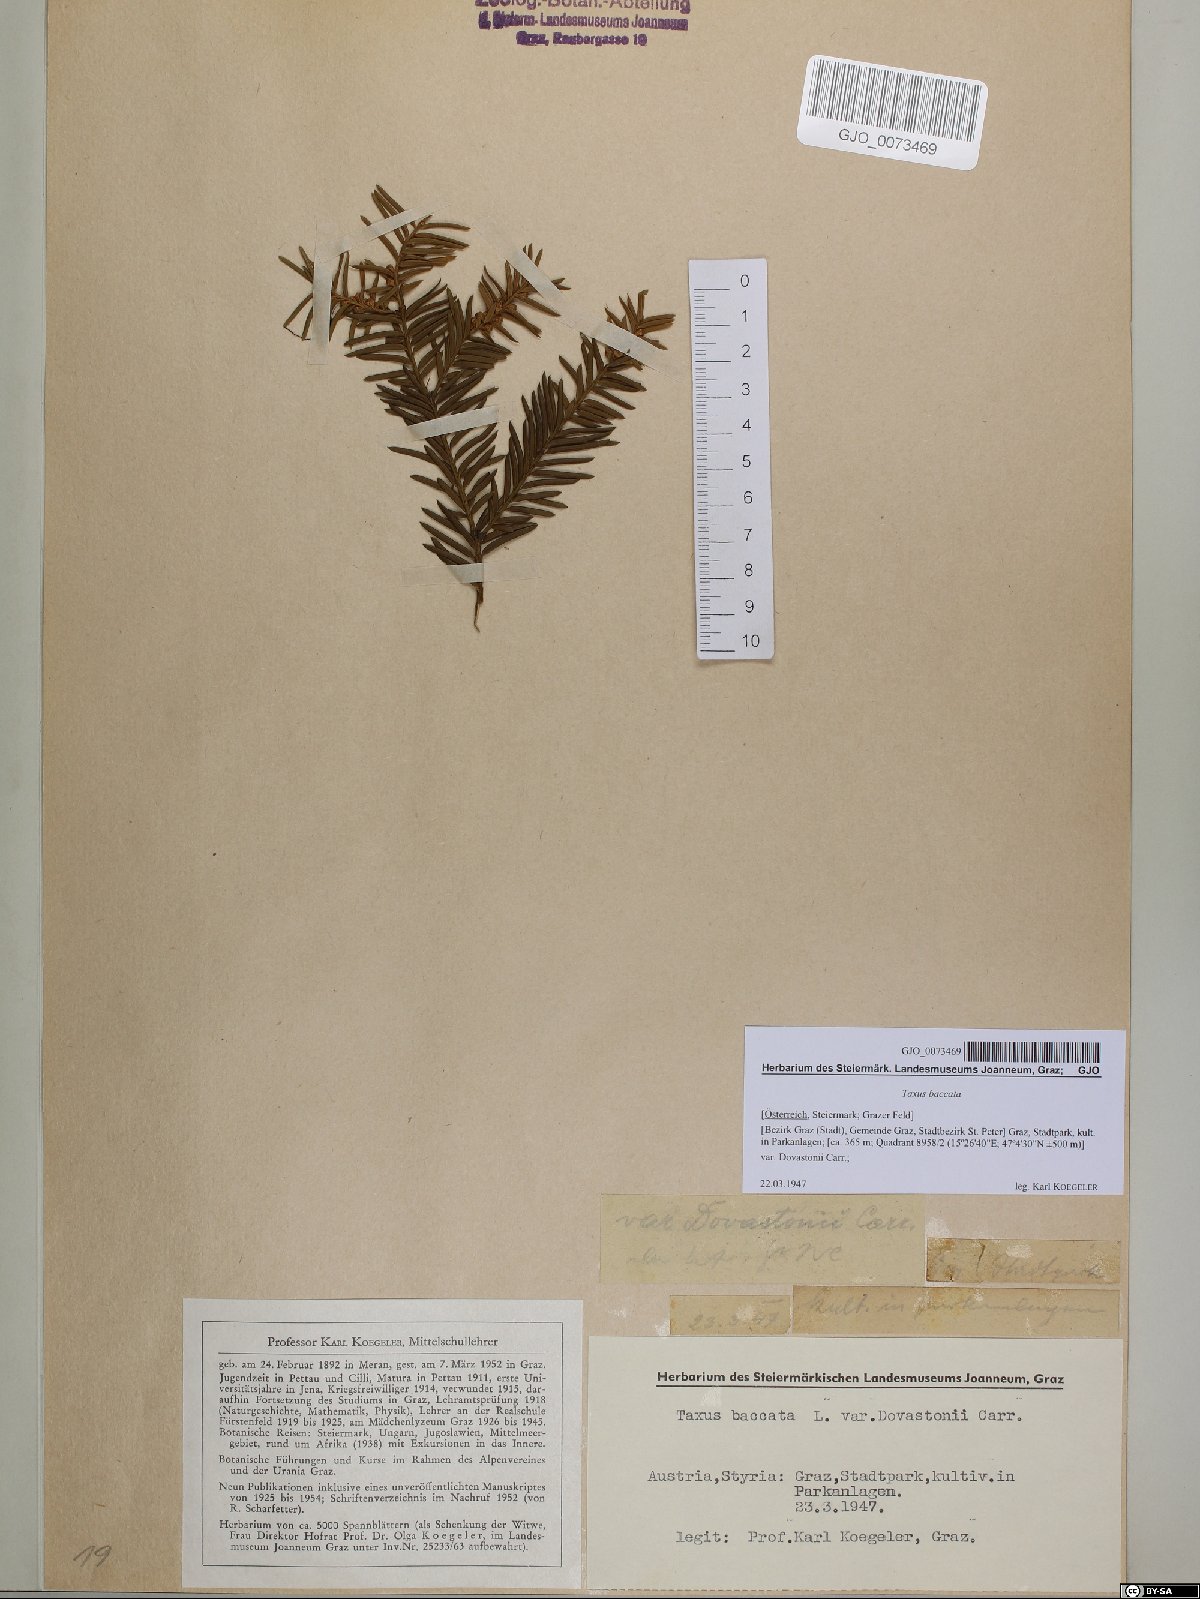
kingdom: Plantae
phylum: Tracheophyta
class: Pinopsida
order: Pinales
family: Taxaceae
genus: Taxus
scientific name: Taxus baccata
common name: Yew
